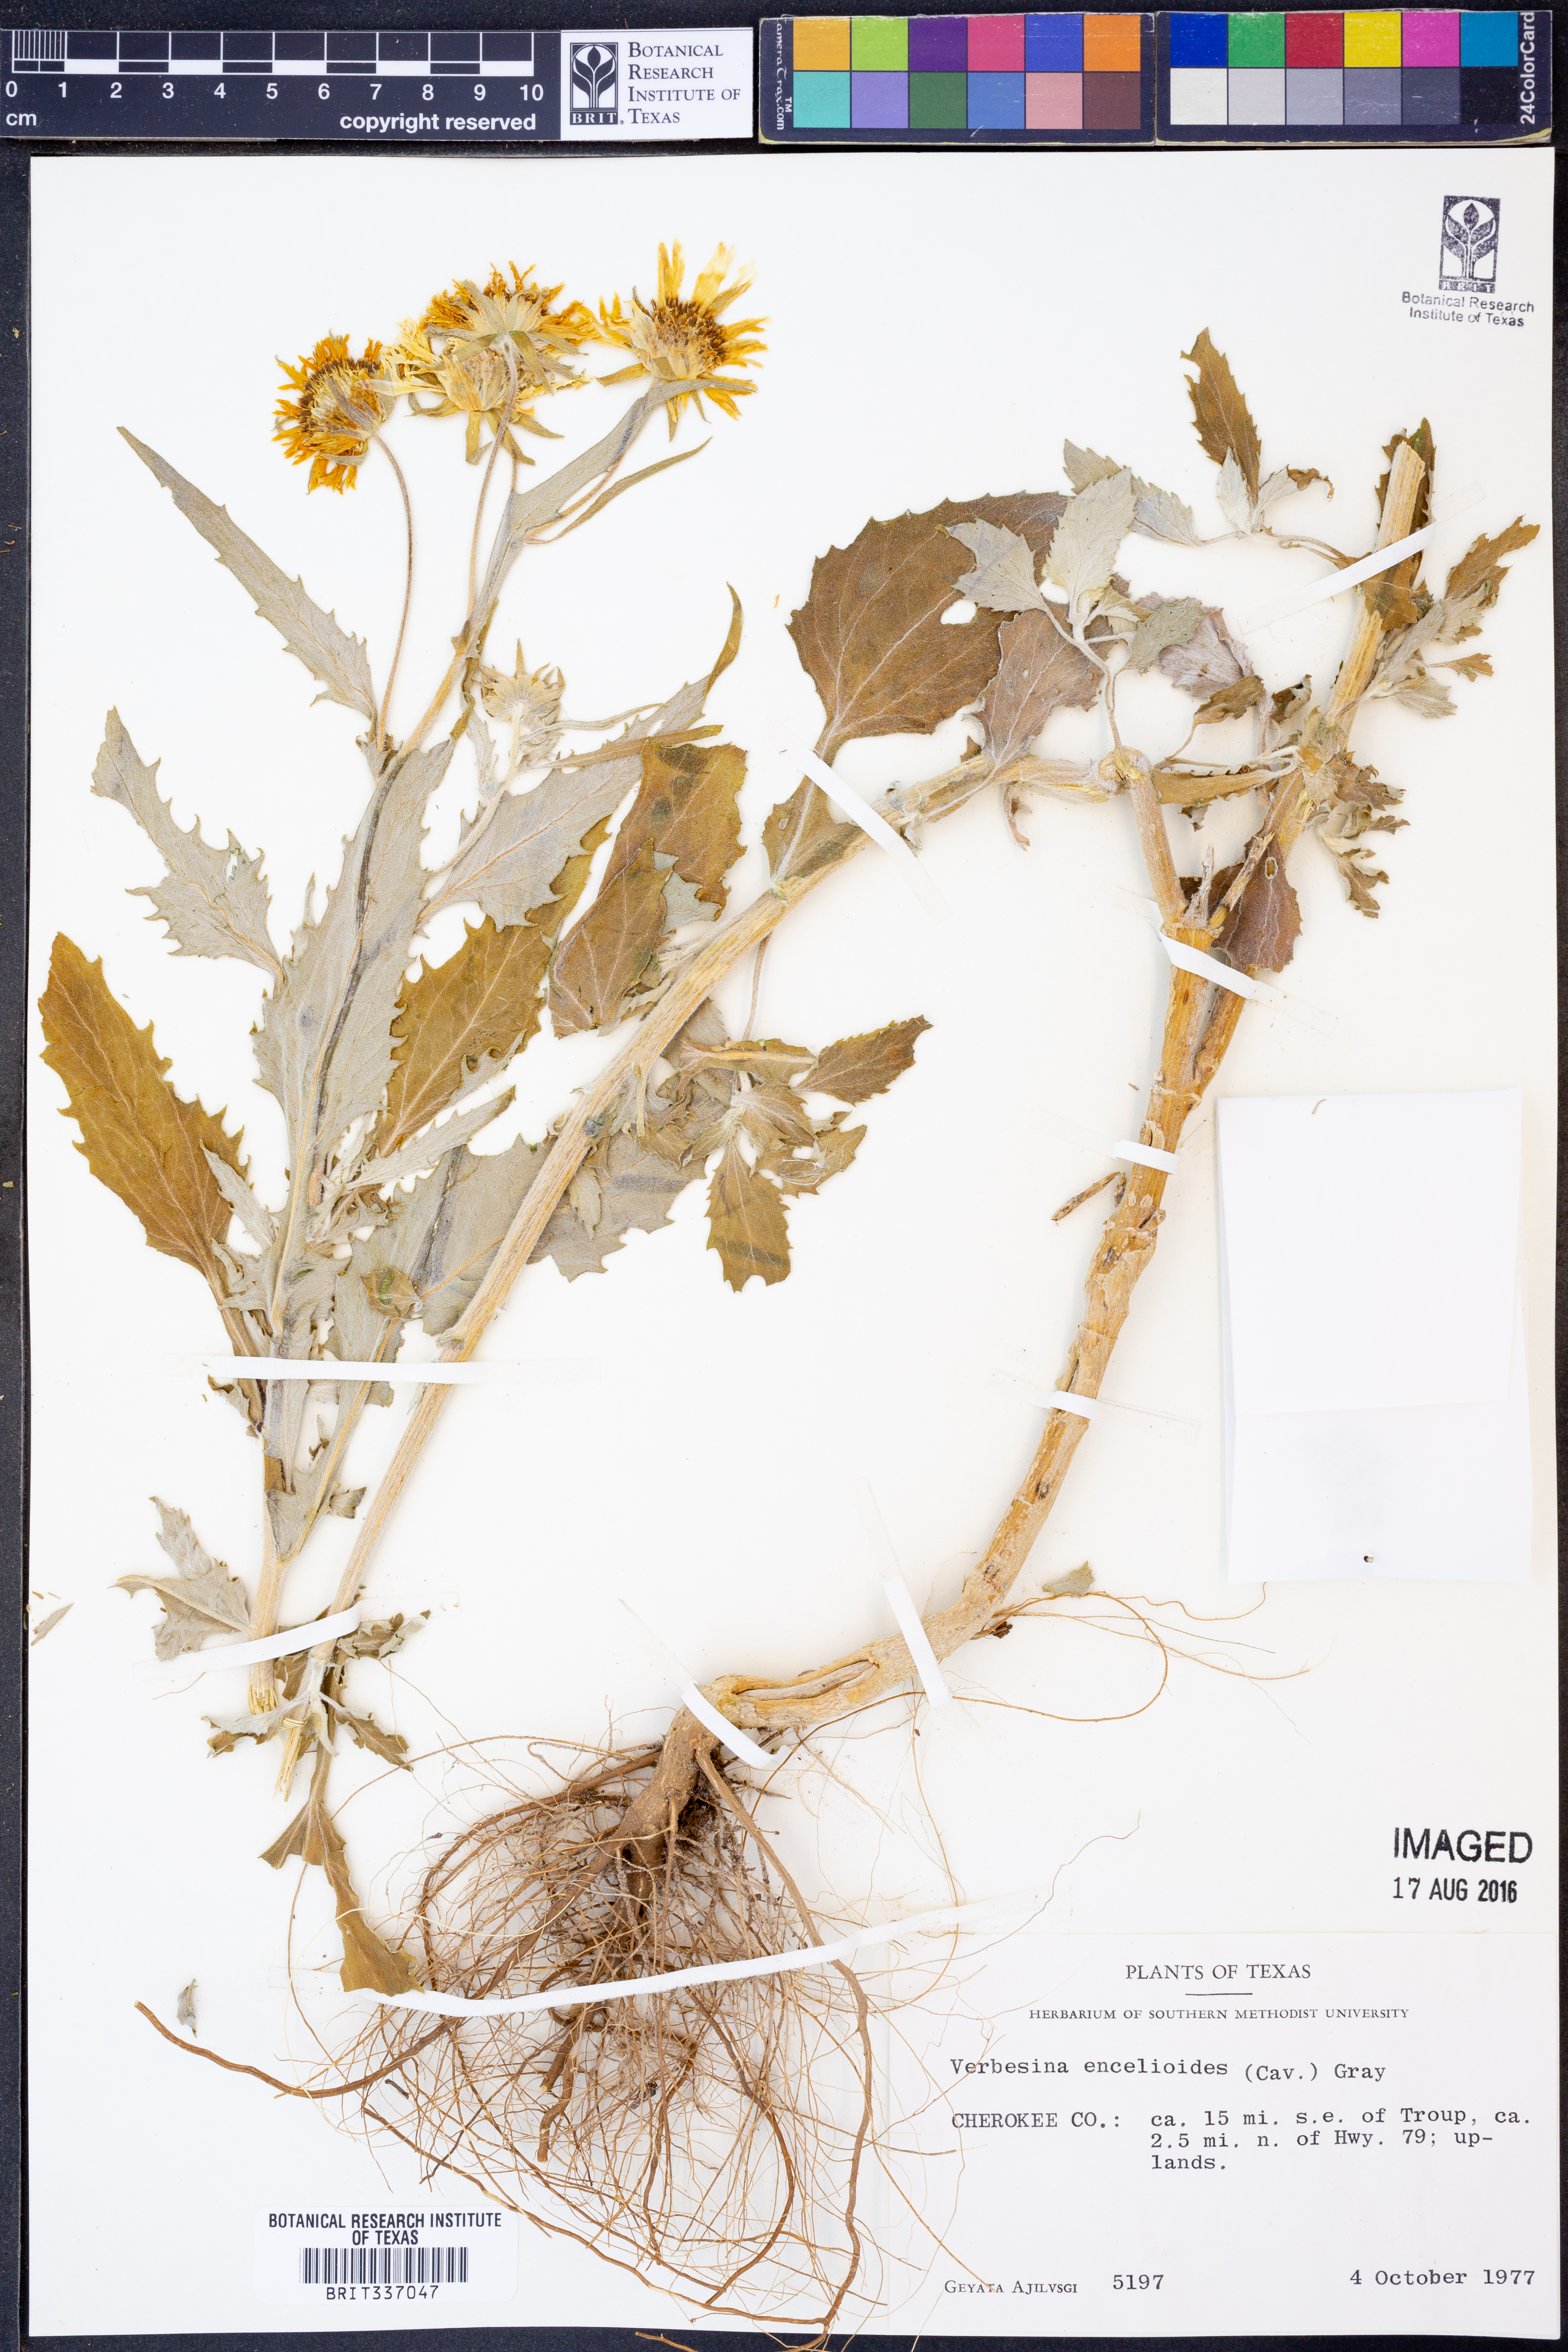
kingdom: Plantae
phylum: Tracheophyta
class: Magnoliopsida
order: Asterales
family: Asteraceae
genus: Verbesina
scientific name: Verbesina encelioides
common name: Golden crownbeard
